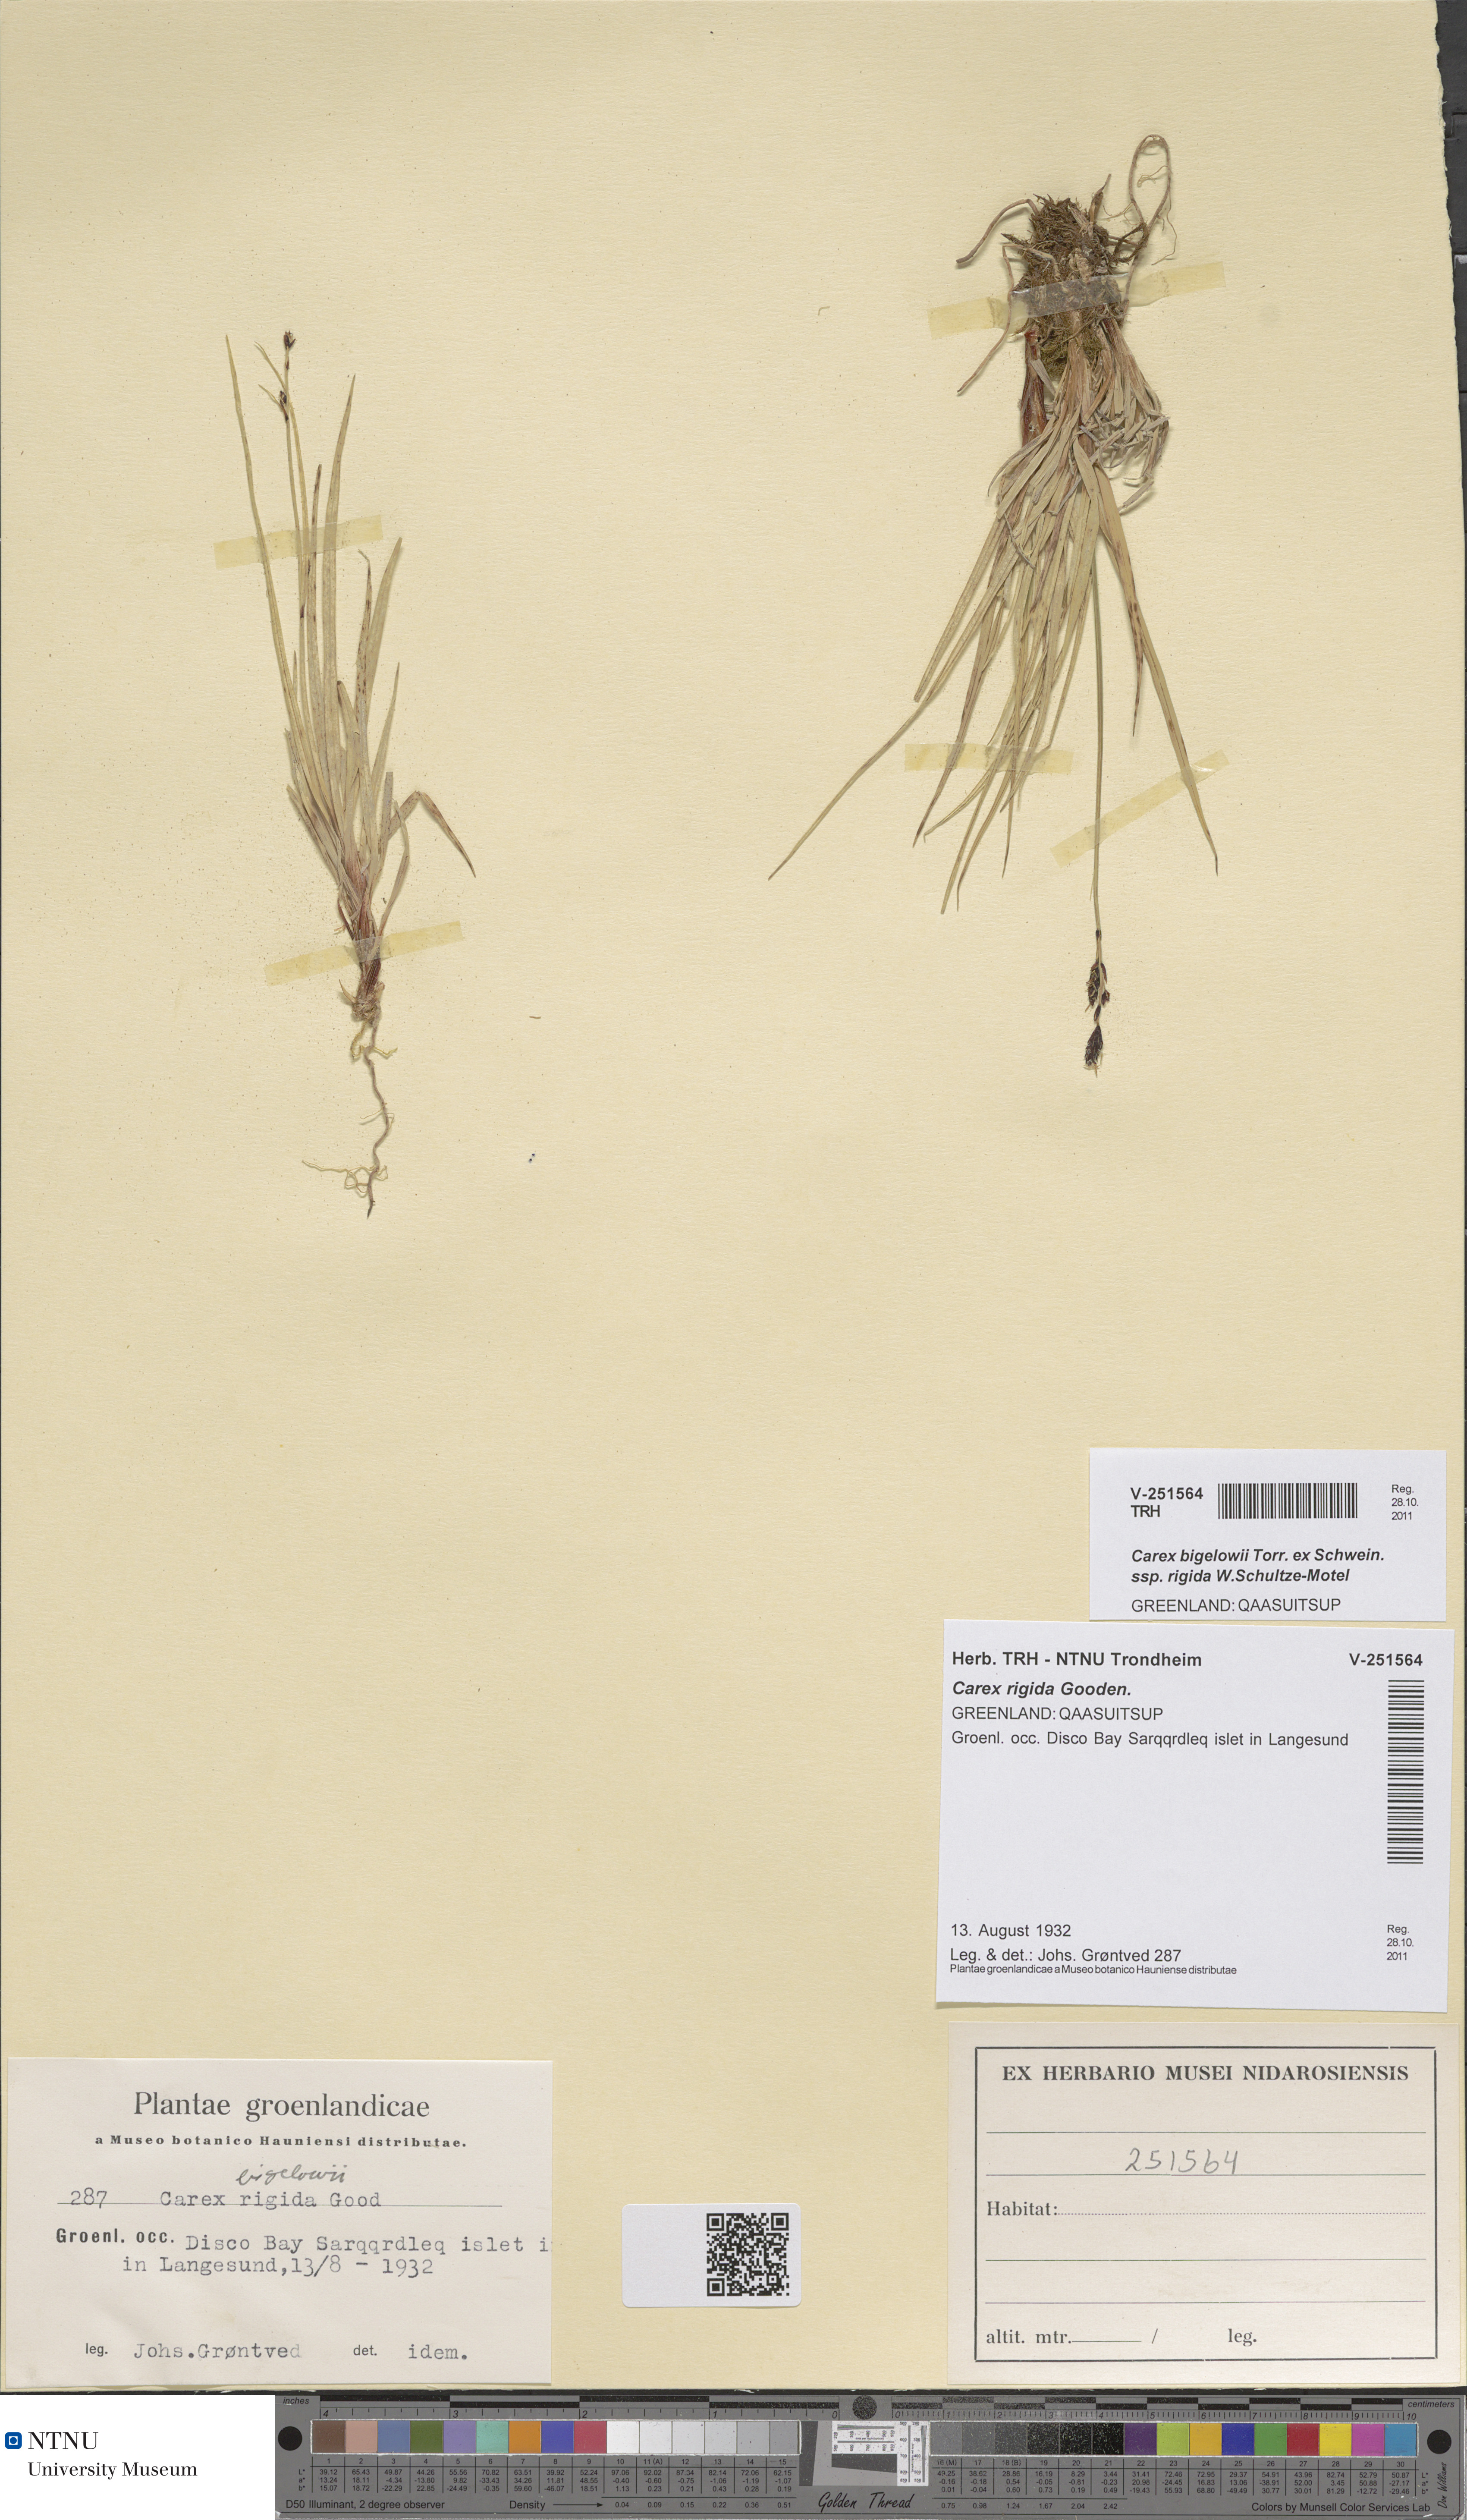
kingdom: Plantae
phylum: Tracheophyta
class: Liliopsida
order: Poales
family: Cyperaceae
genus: Carex
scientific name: Carex dacica
